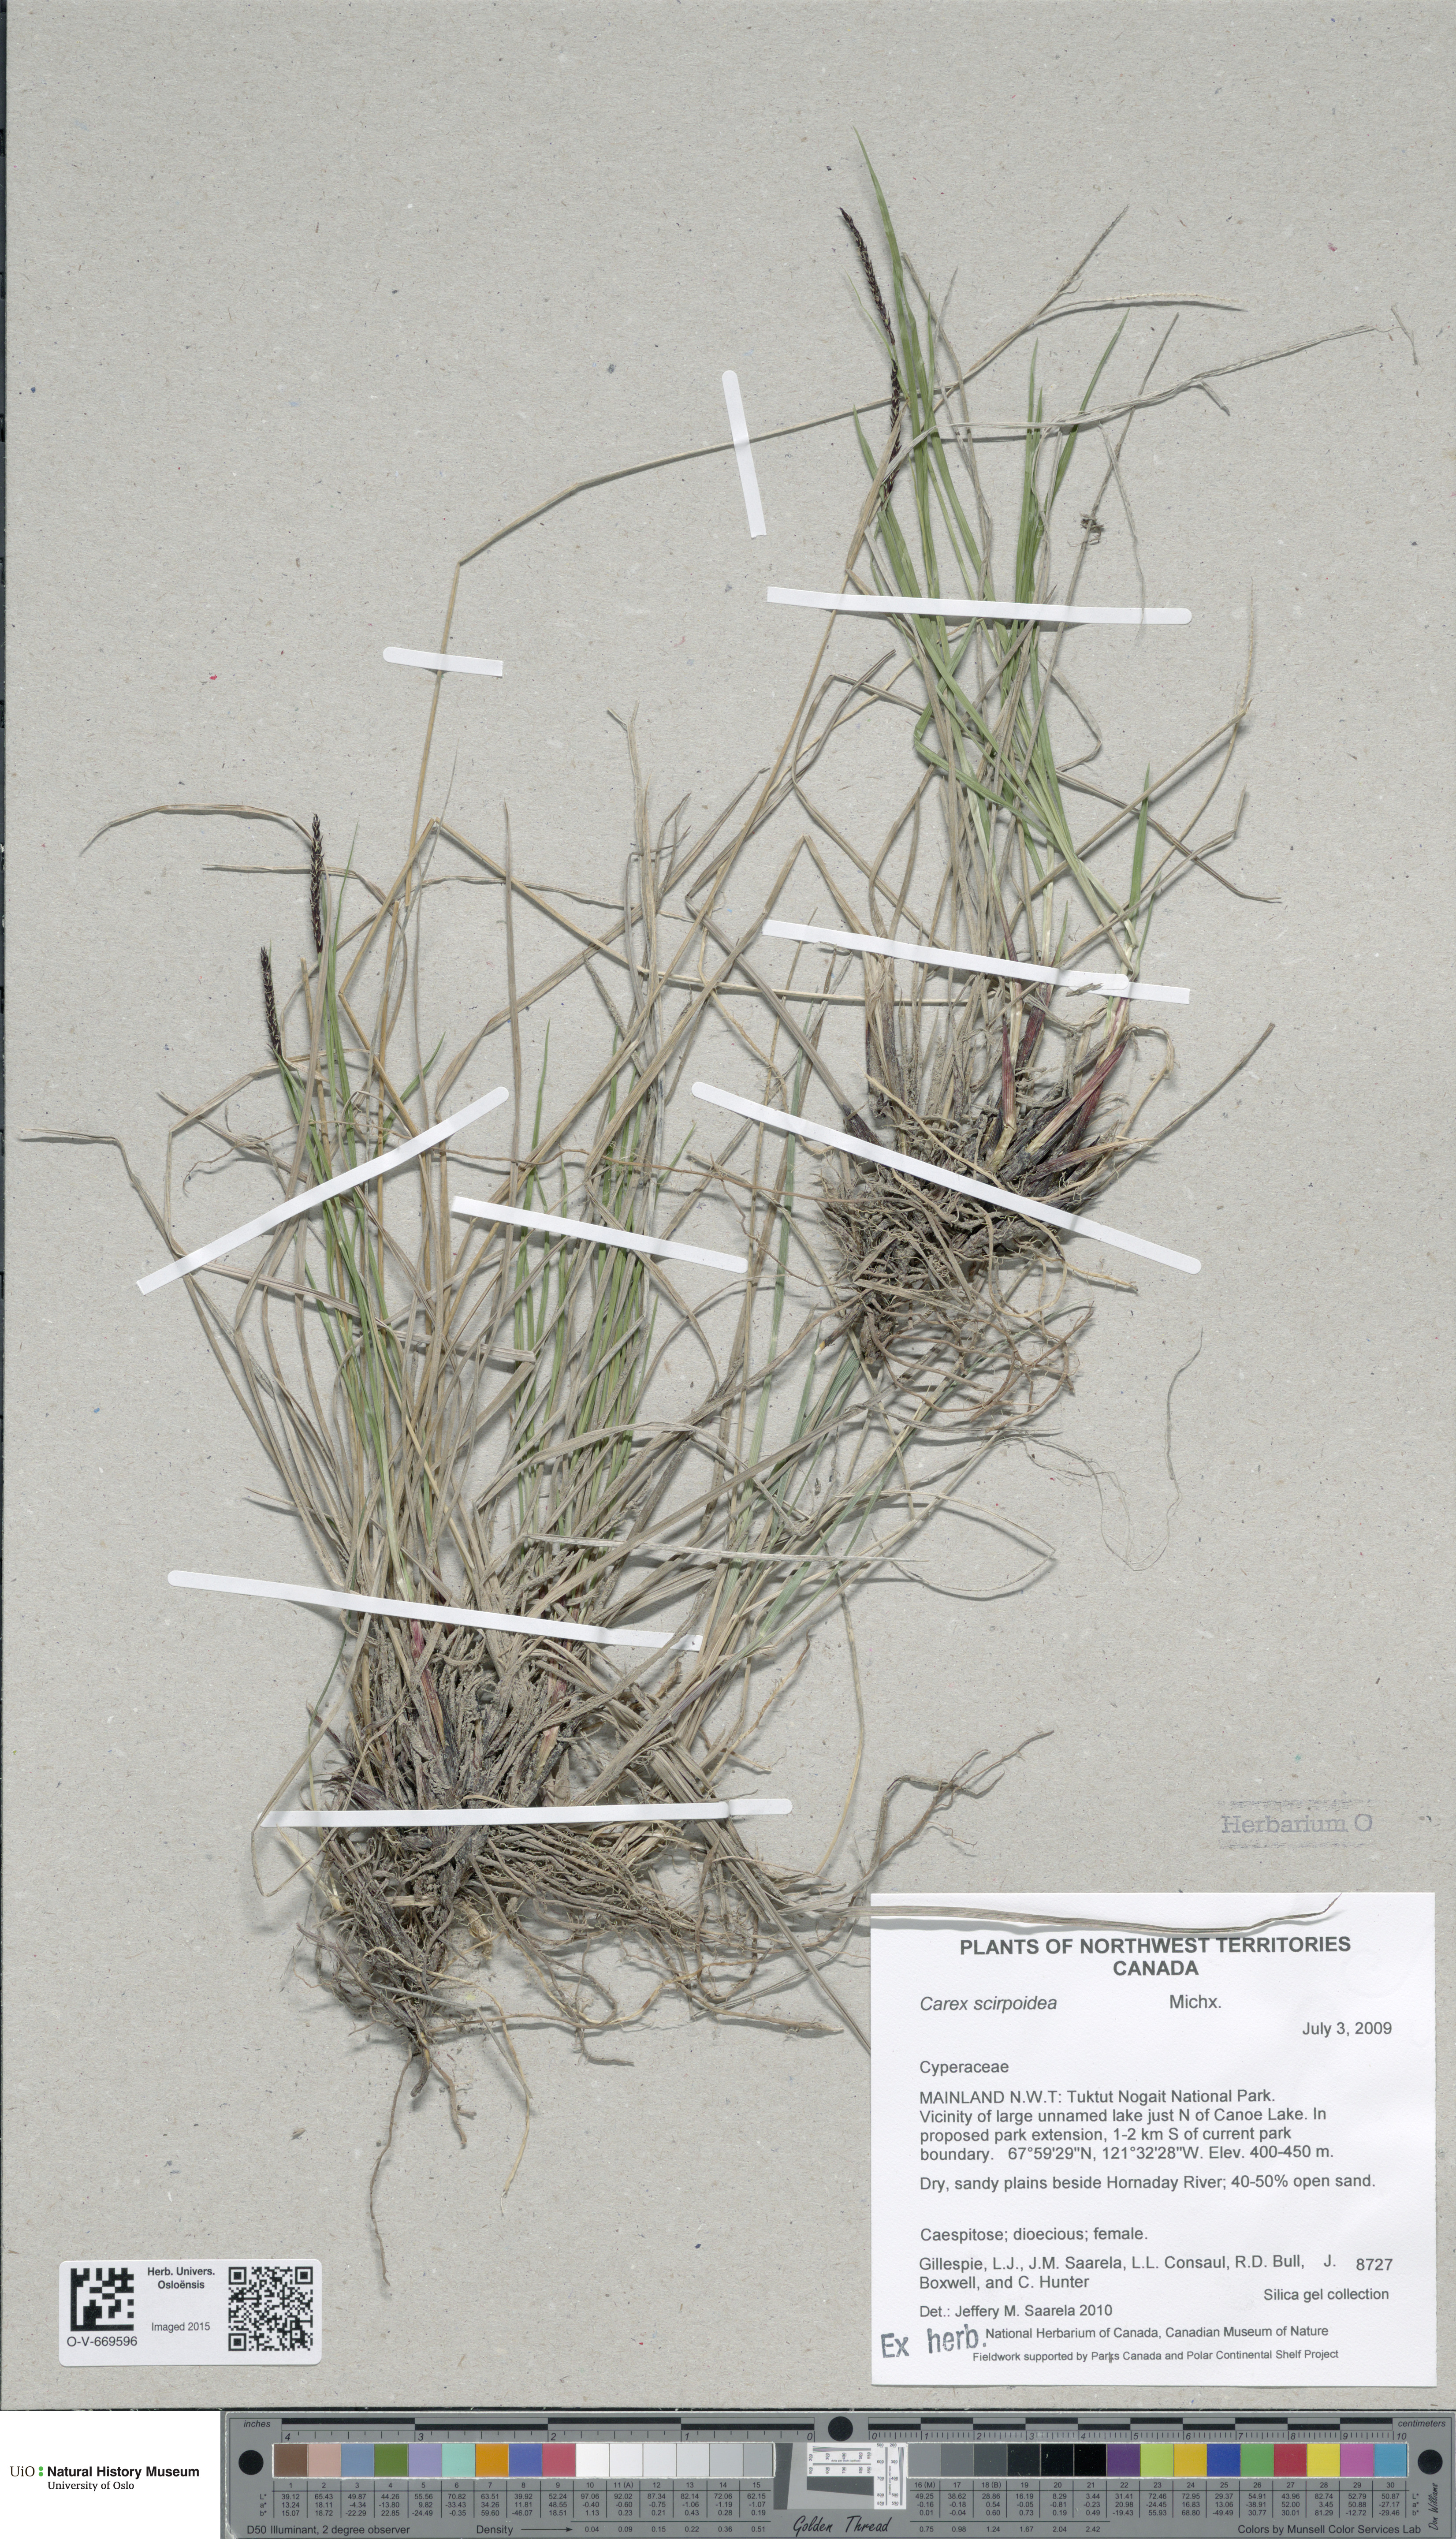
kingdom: Plantae
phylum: Tracheophyta
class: Liliopsida
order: Poales
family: Cyperaceae
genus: Carex
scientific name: Carex scirpoidea
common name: Canada single-spike sedge
